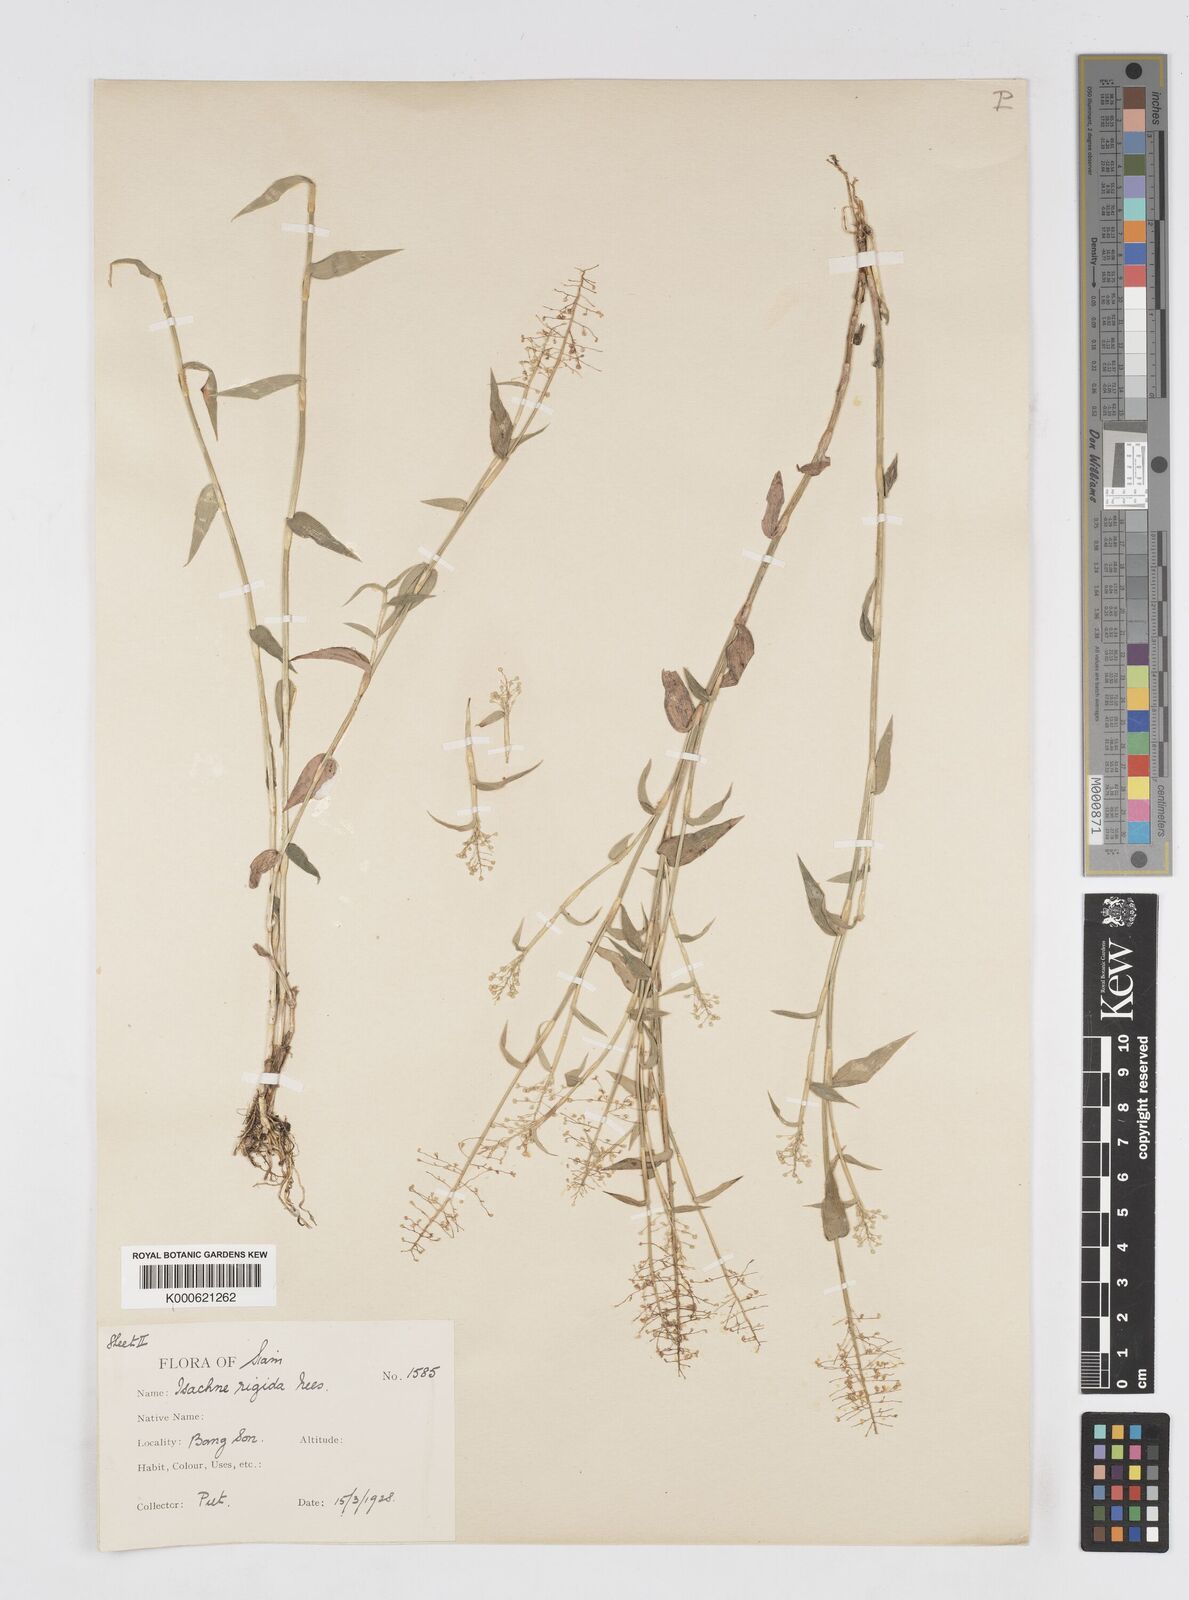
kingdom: Plantae
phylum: Tracheophyta
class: Liliopsida
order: Poales
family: Poaceae
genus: Isachne
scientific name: Isachne confusa
